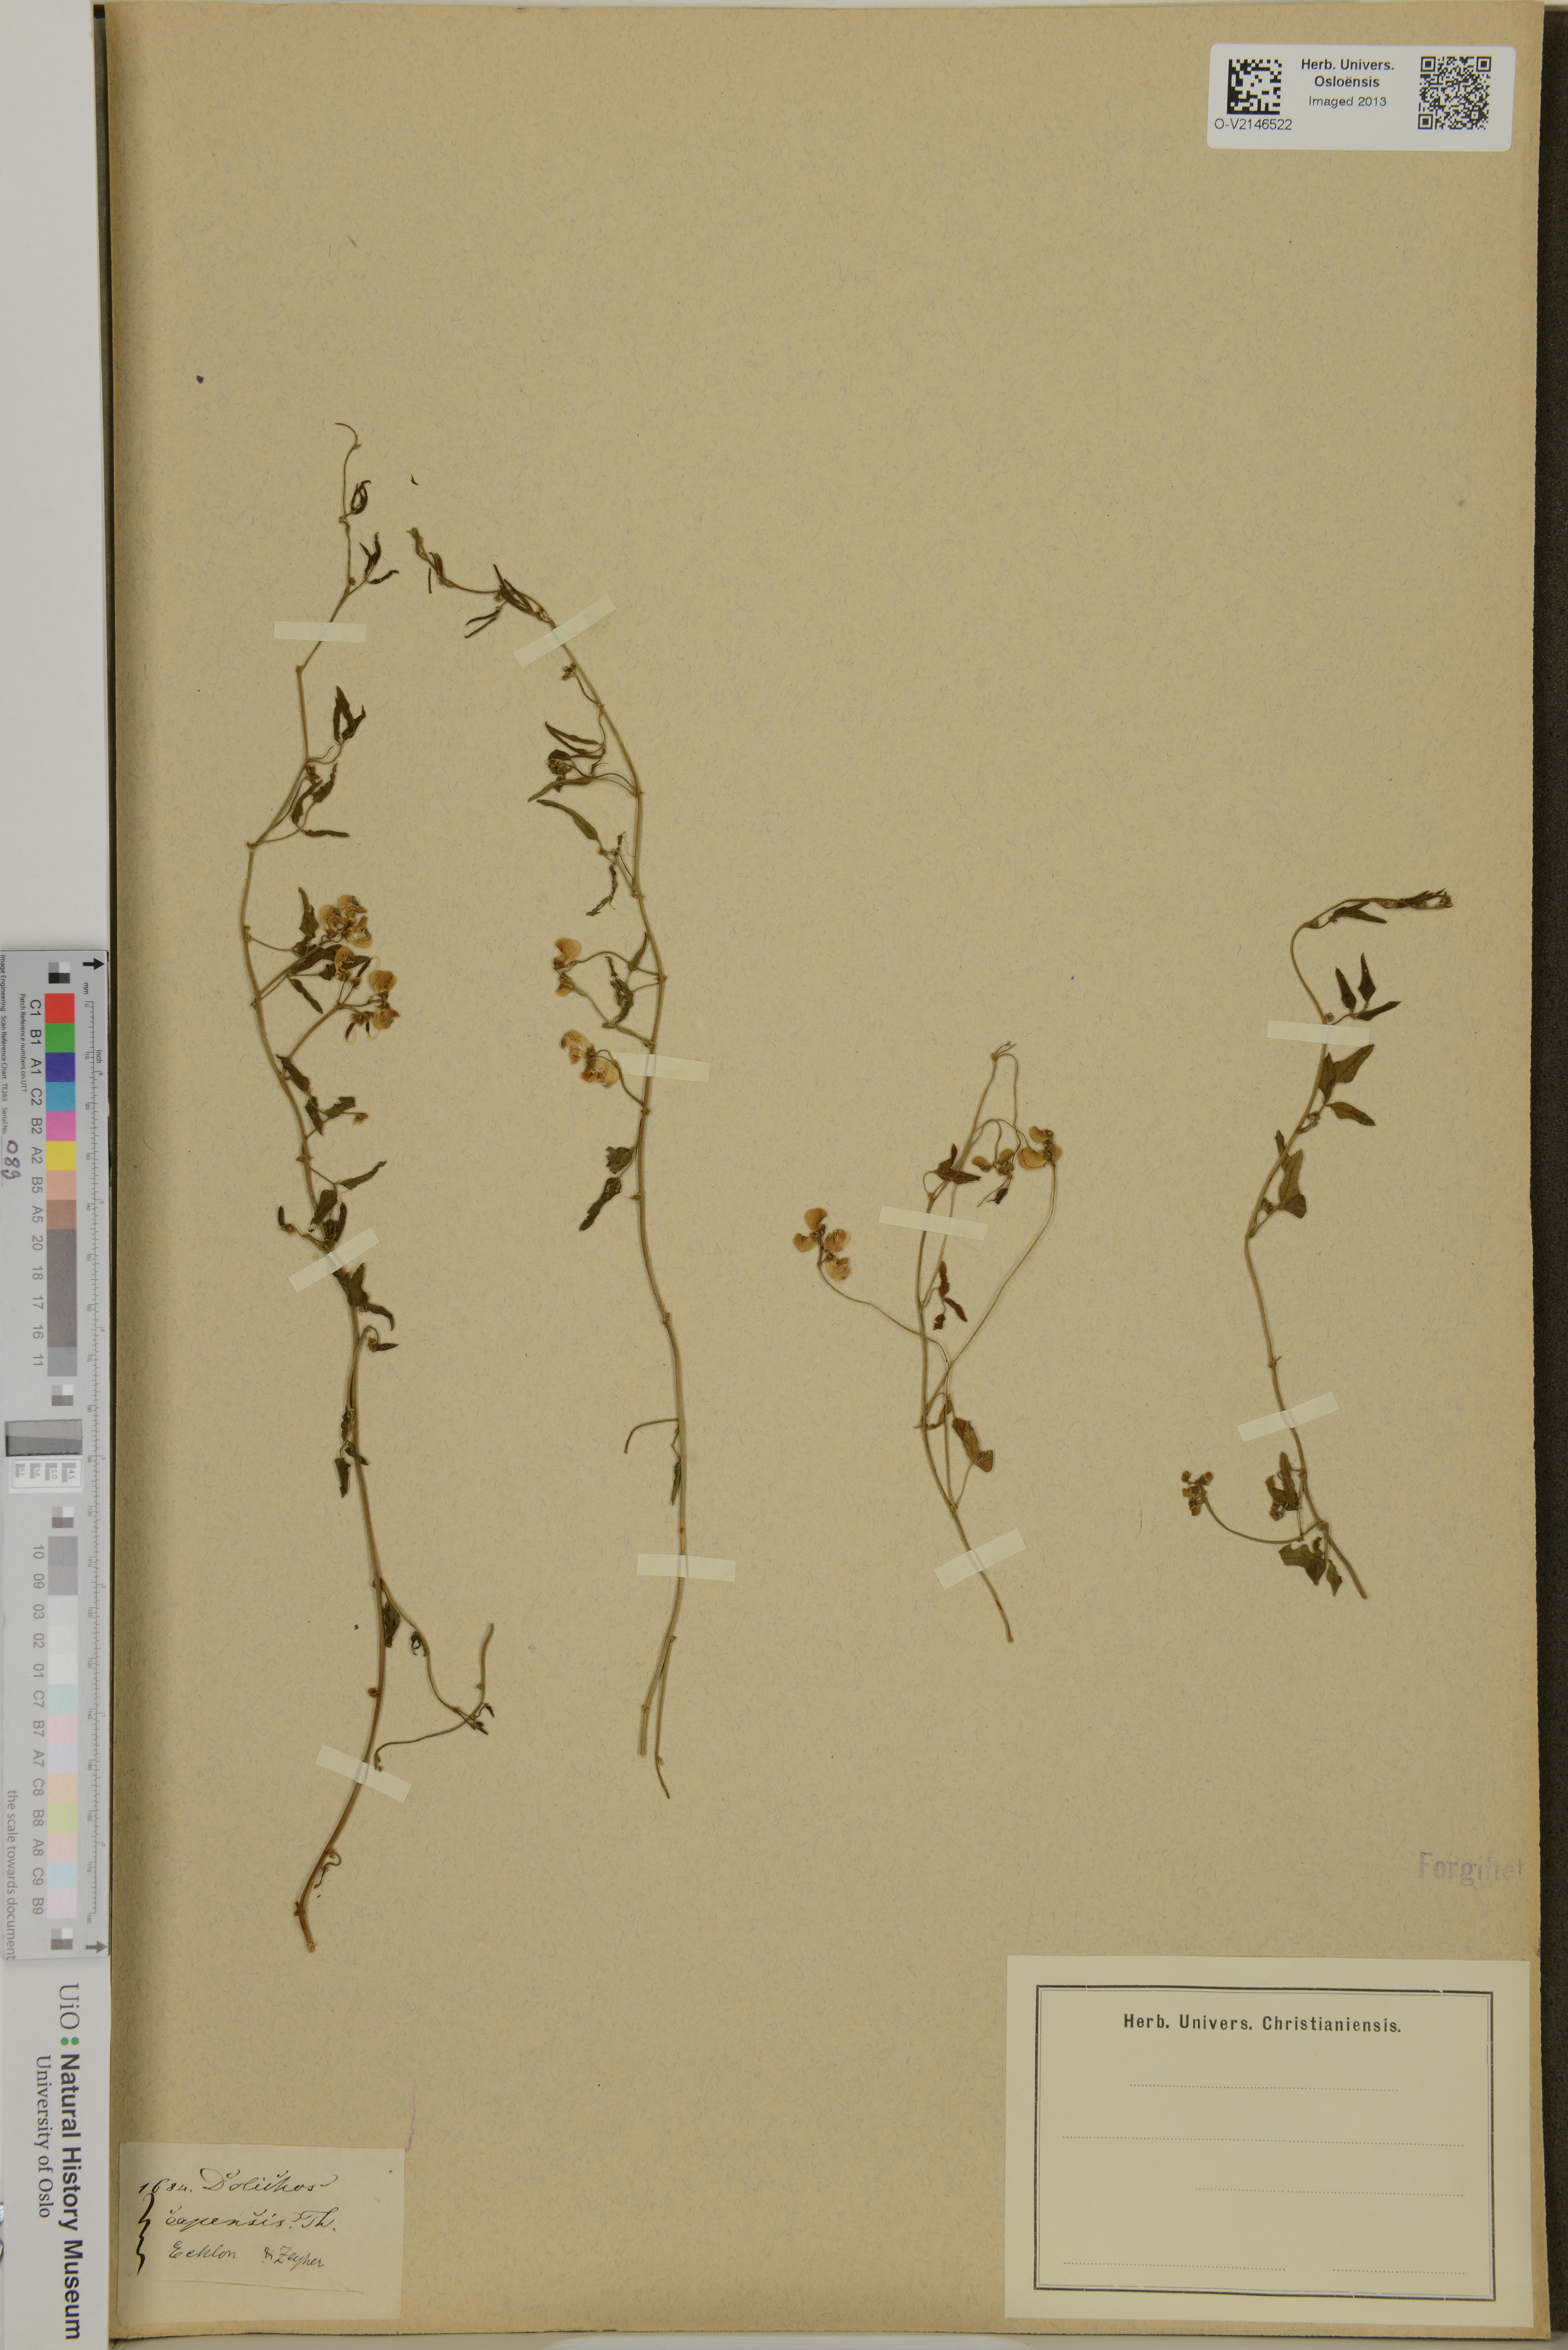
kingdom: Plantae
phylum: Tracheophyta
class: Magnoliopsida
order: Fabales
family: Fabaceae
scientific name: Fabaceae
